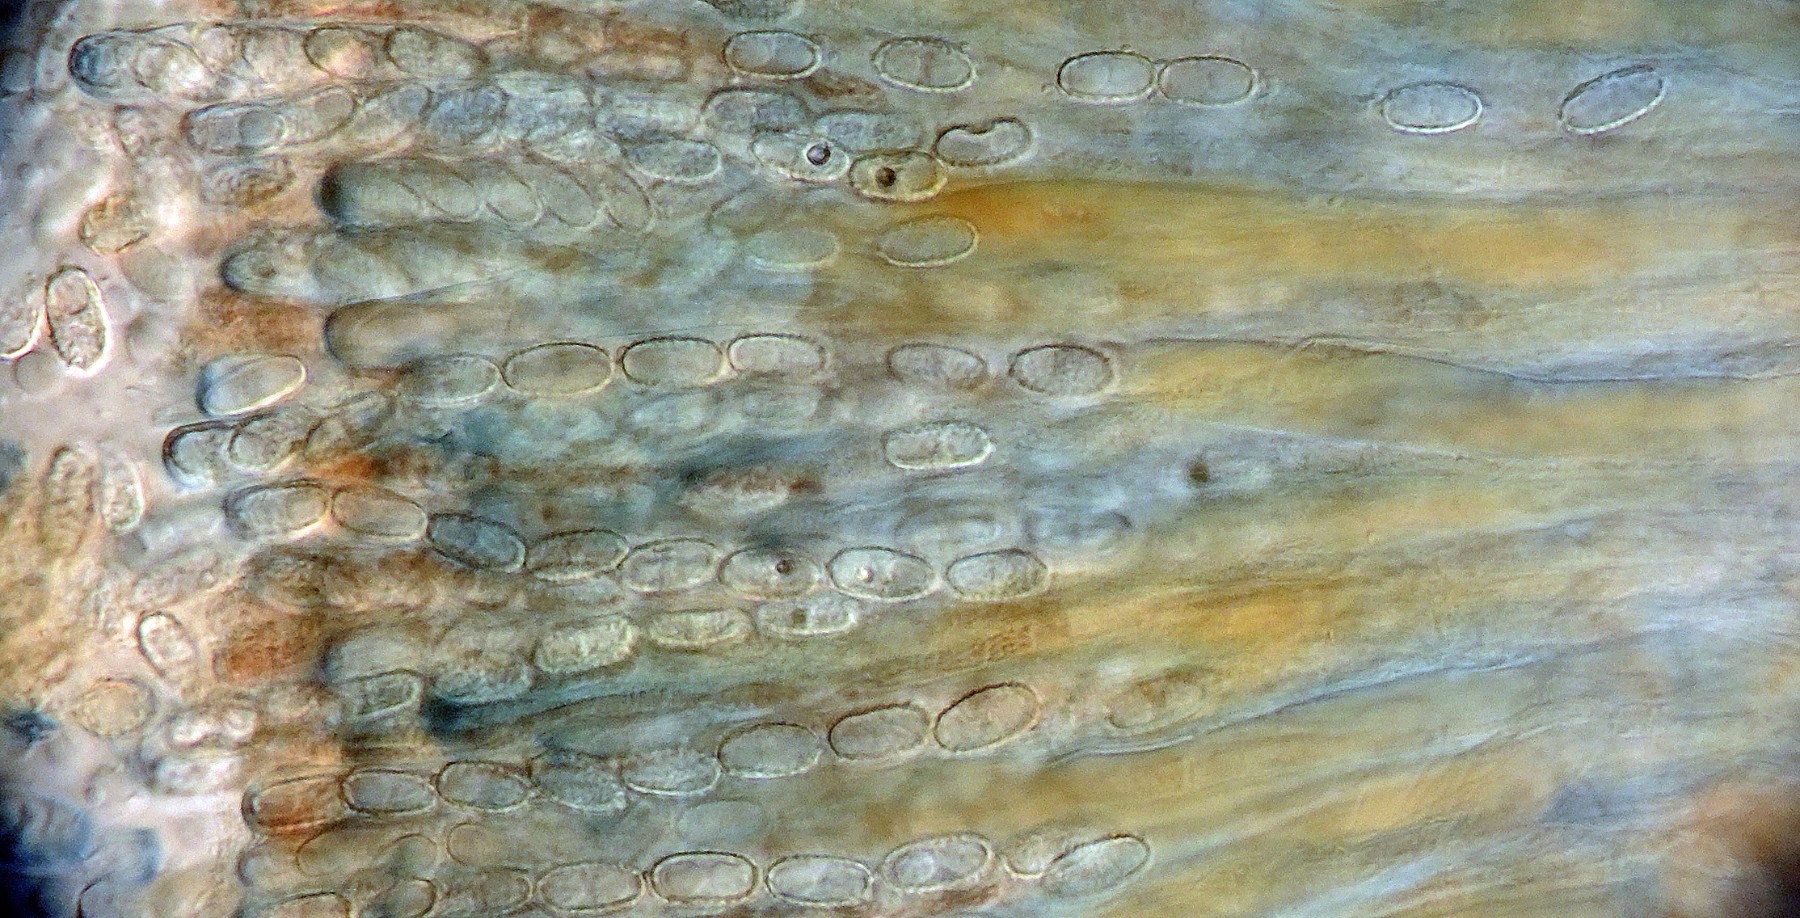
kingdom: Fungi
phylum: Ascomycota
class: Pezizomycetes
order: Pezizales
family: Pezizaceae
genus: Daleomyces
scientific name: Daleomyces petersii
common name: brandplet-bægersvamp
